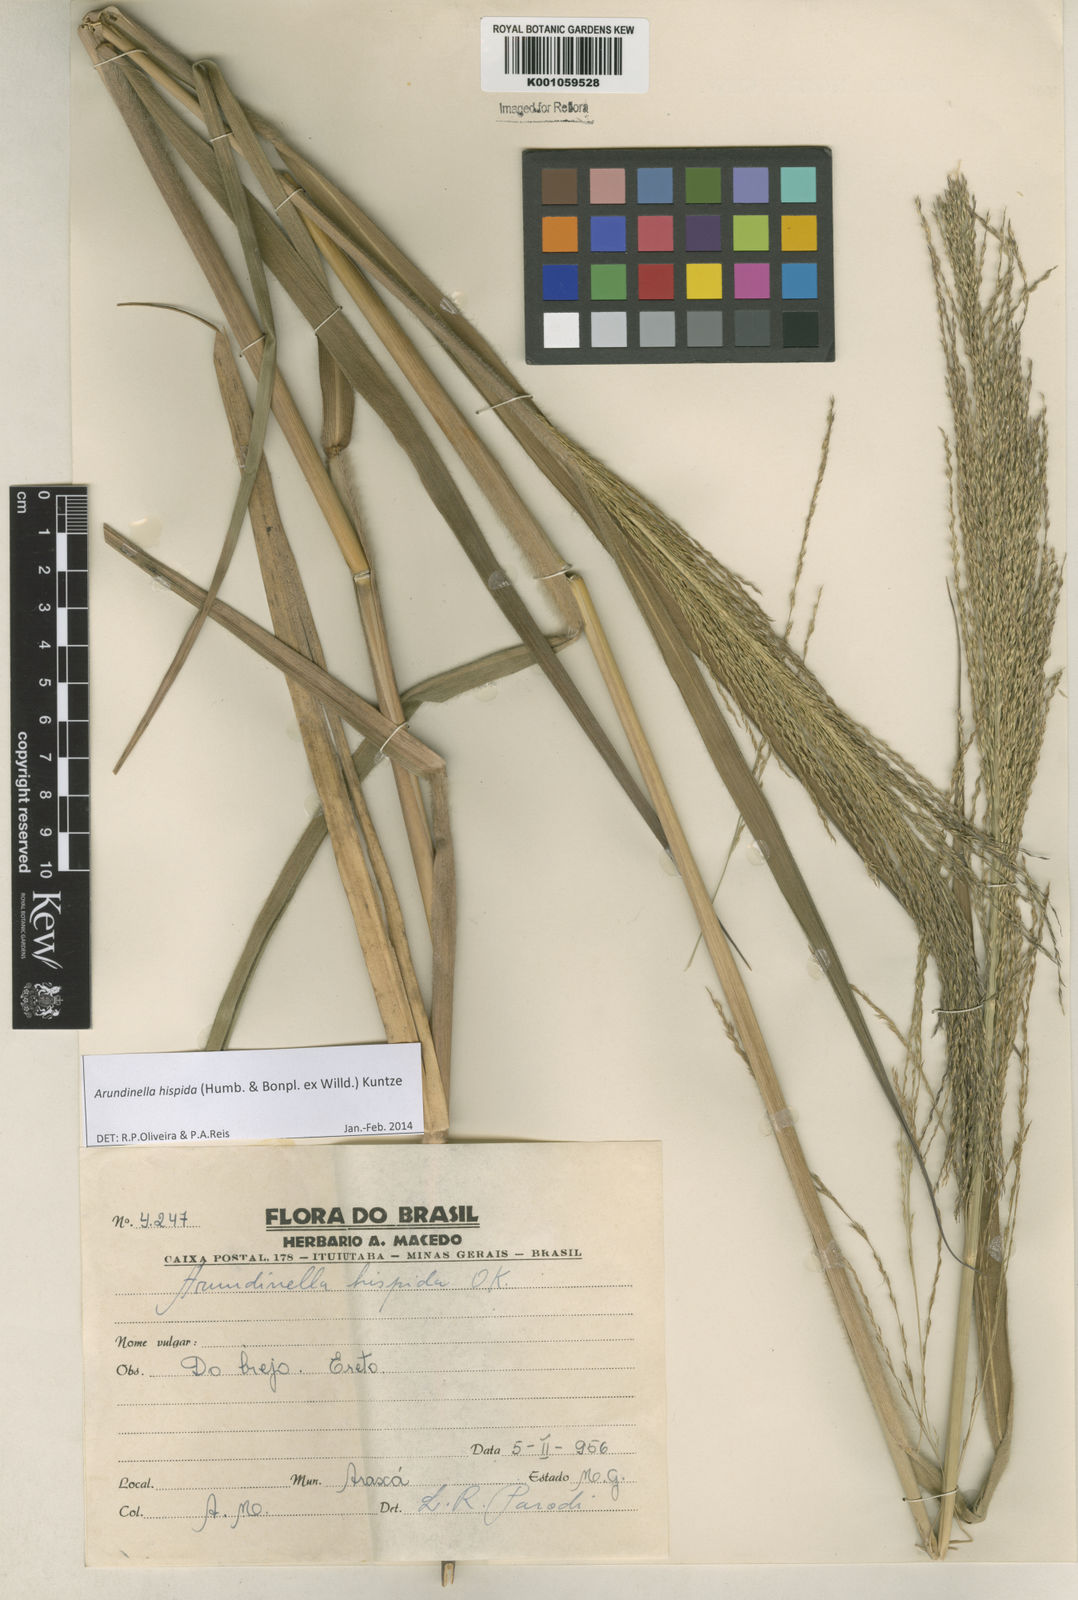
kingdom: Plantae
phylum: Tracheophyta
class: Liliopsida
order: Poales
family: Poaceae
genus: Arundinella
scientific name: Arundinella hispida
